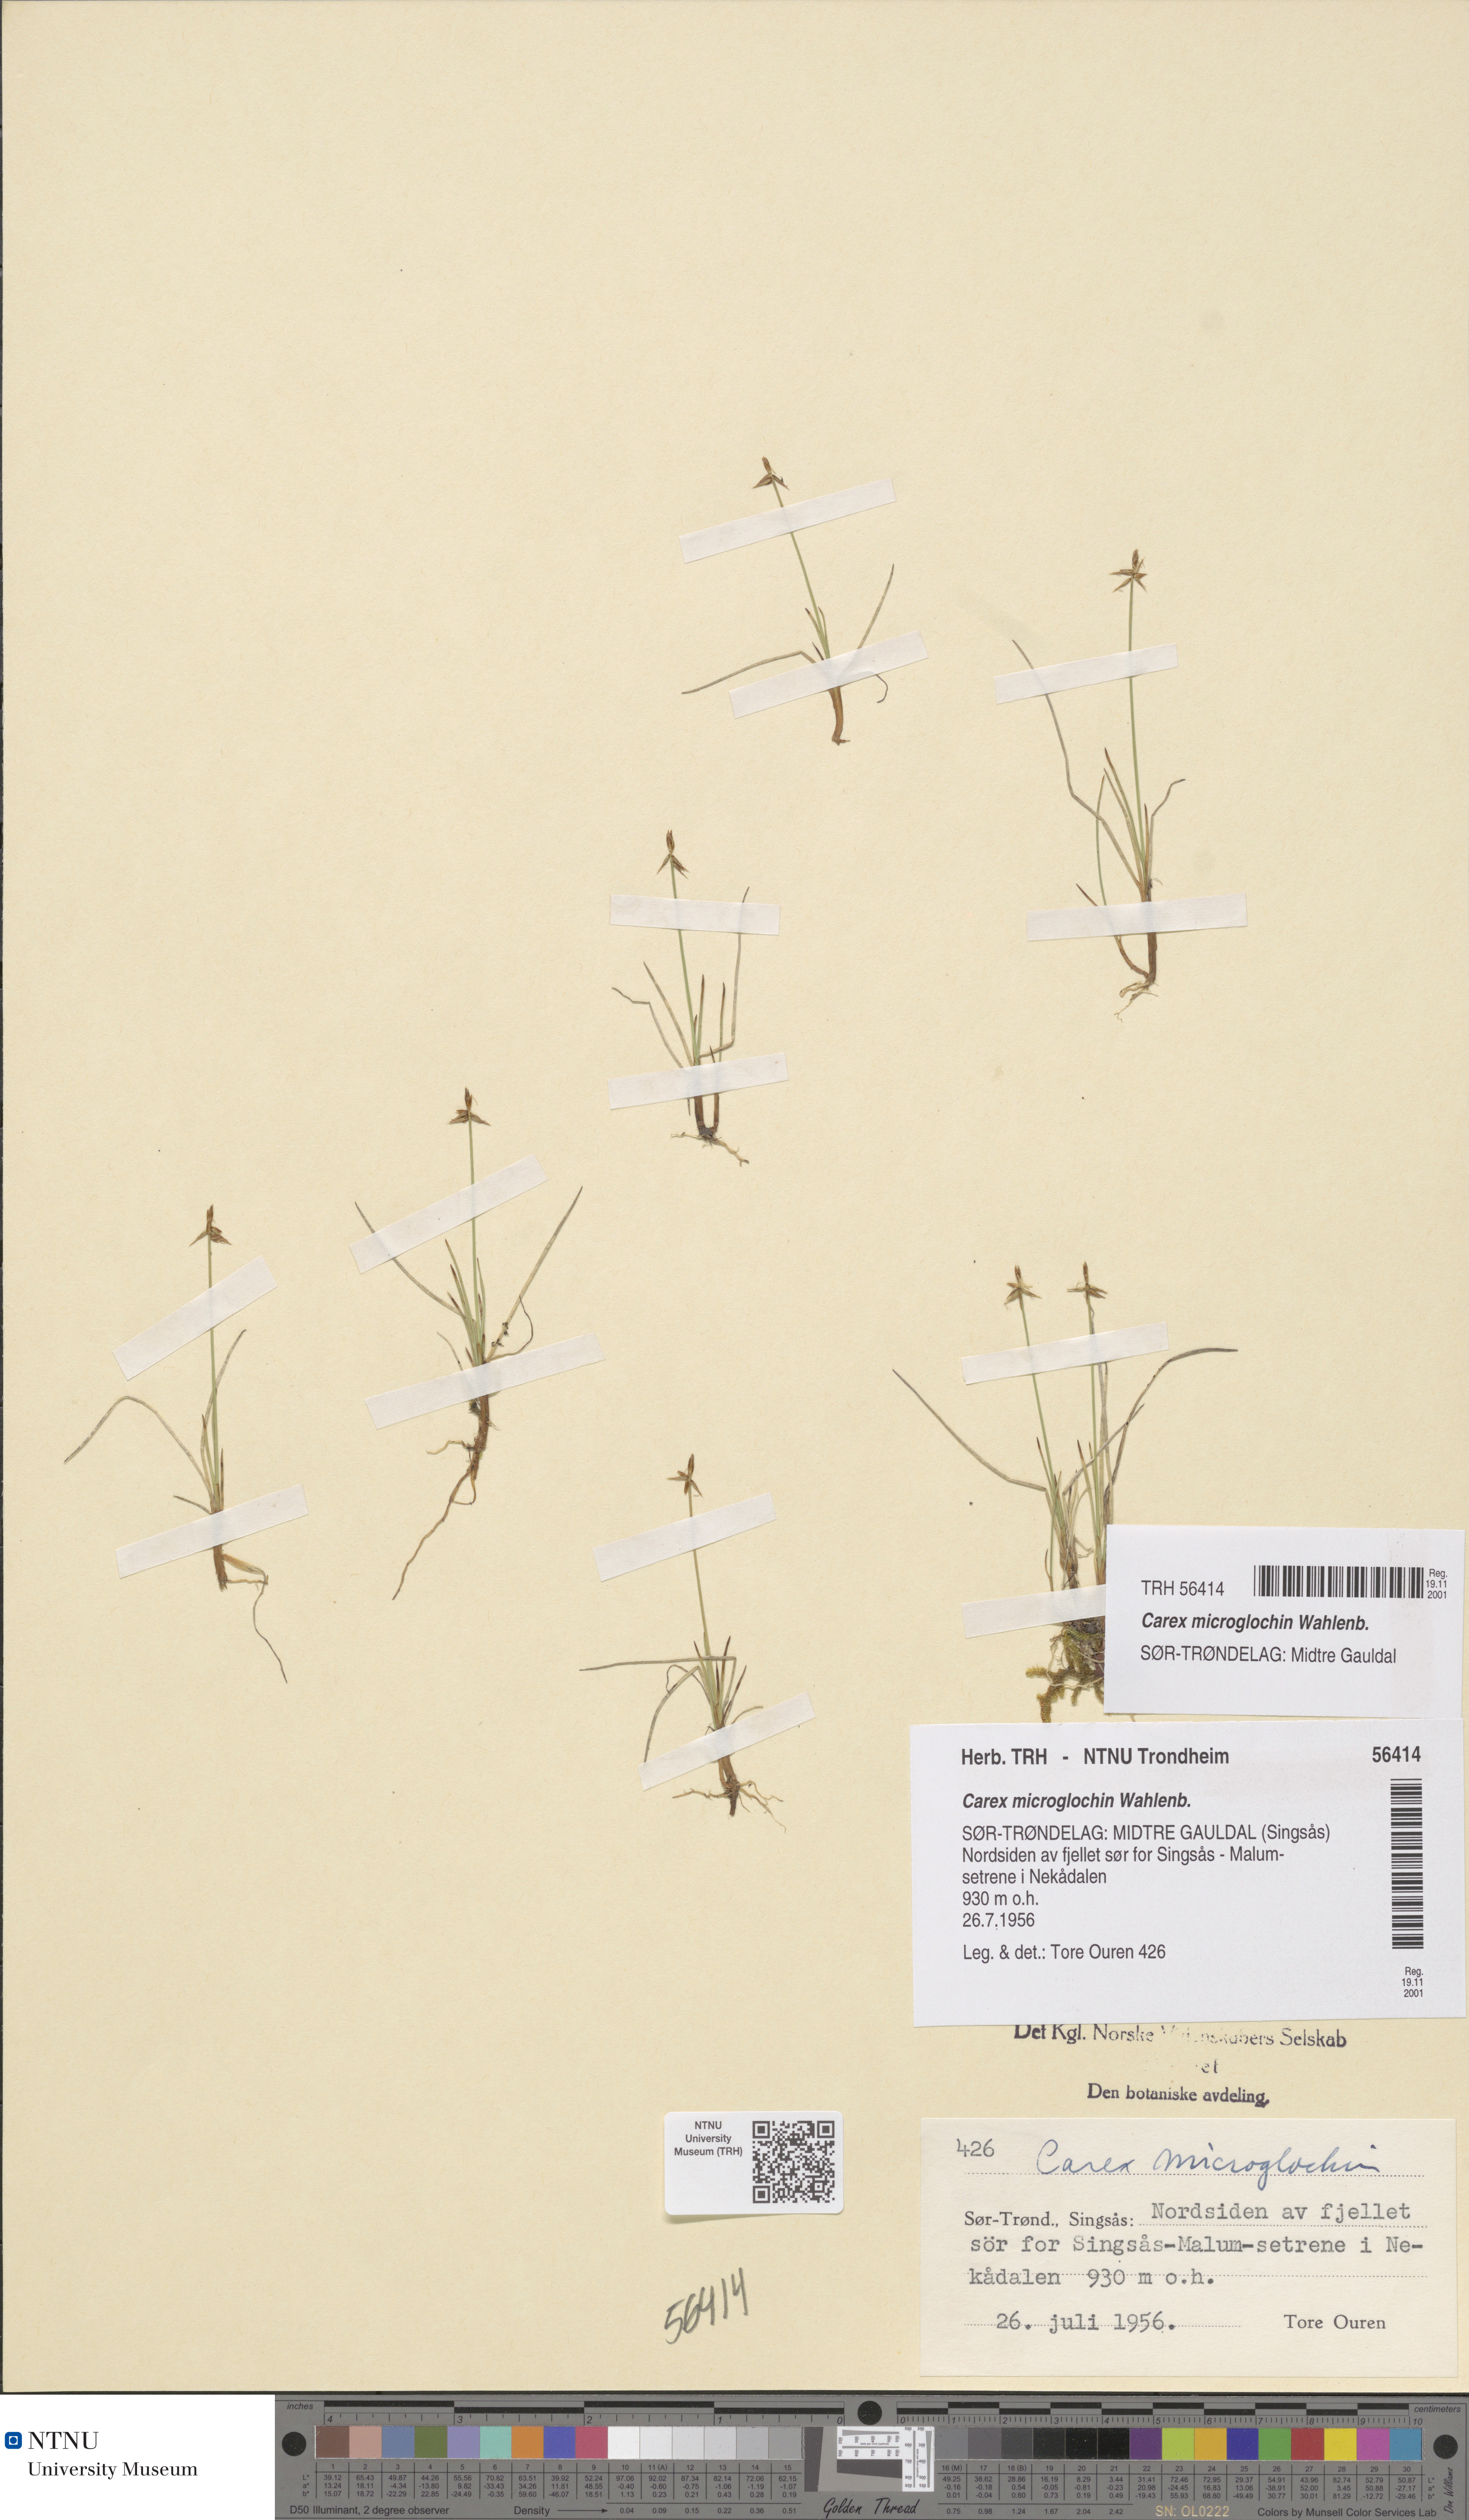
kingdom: Plantae
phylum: Tracheophyta
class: Liliopsida
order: Poales
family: Cyperaceae
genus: Carex
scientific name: Carex microglochin
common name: Bristle sedge
